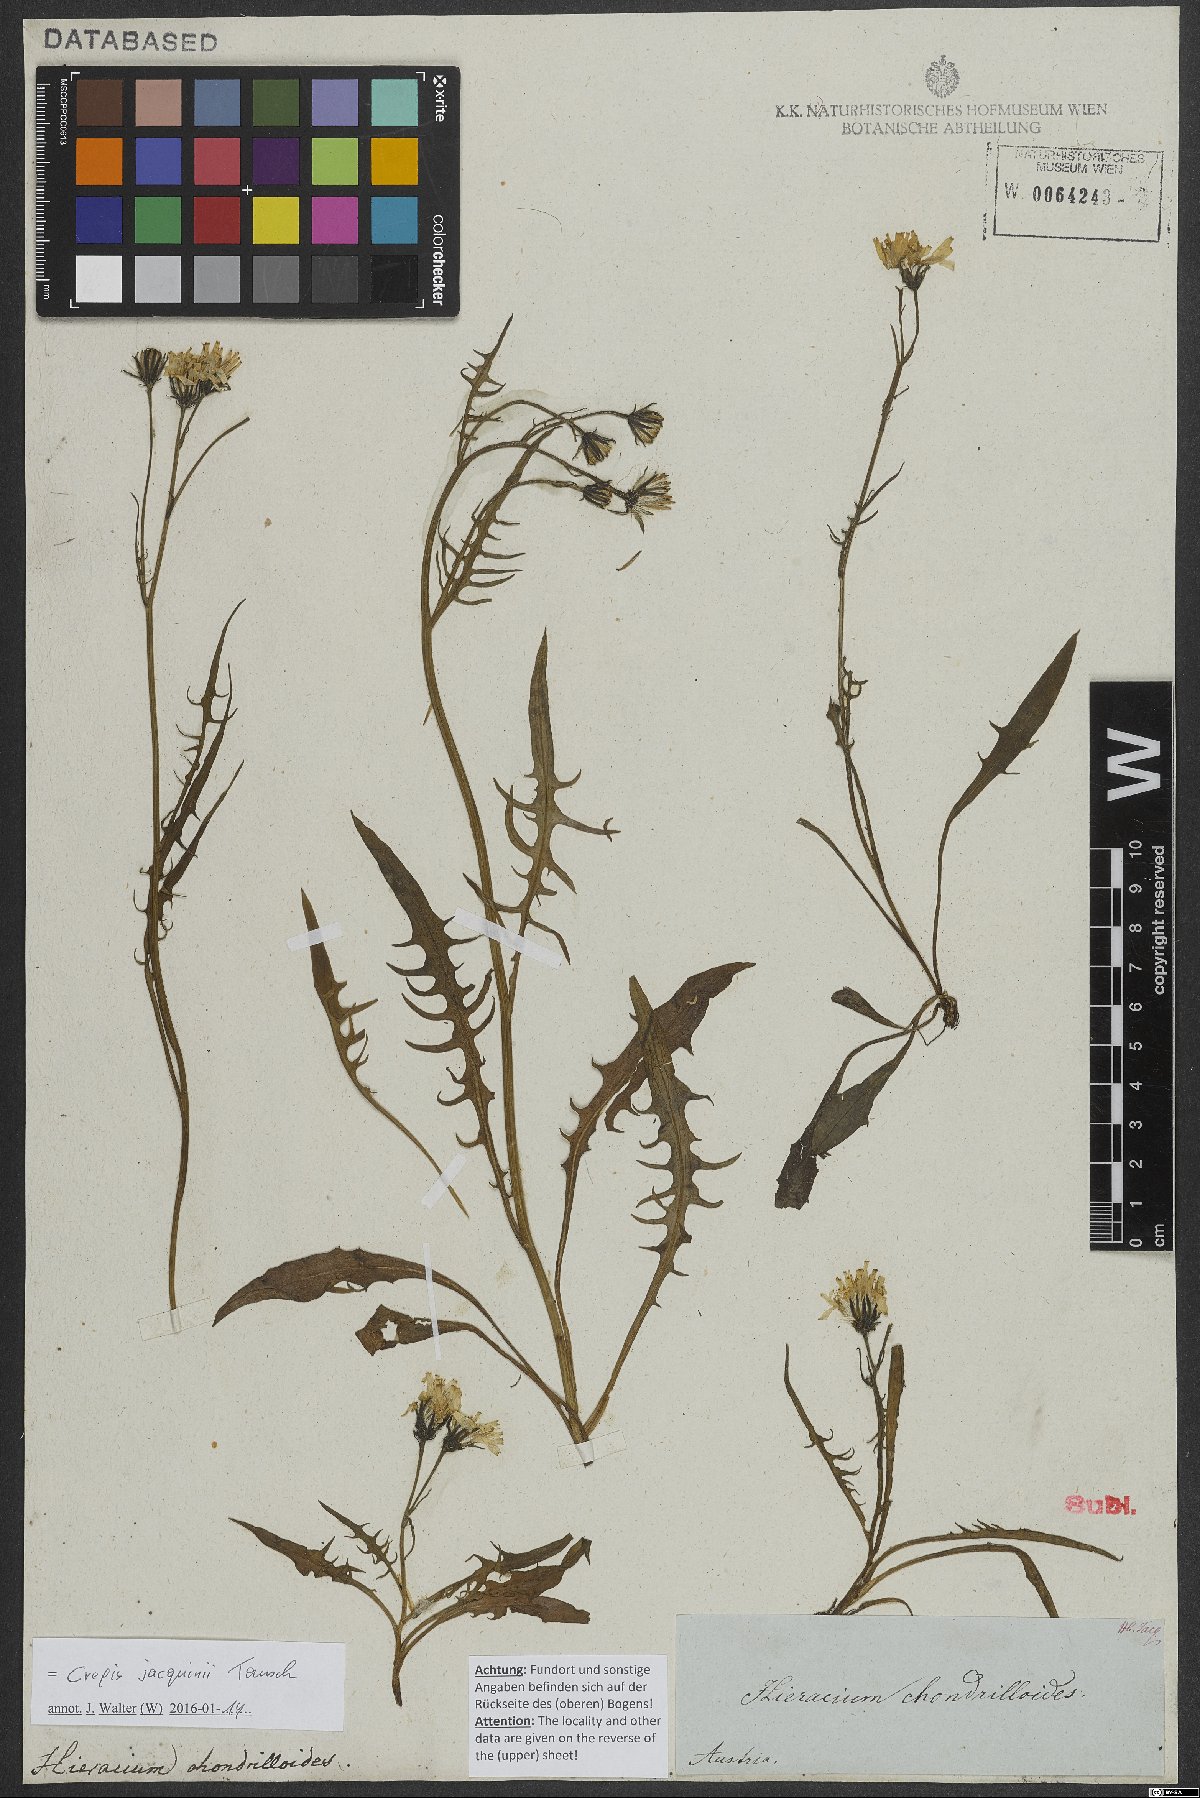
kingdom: Plantae
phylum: Tracheophyta
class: Magnoliopsida
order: Asterales
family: Asteraceae
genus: Crepis
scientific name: Crepis jacquinii
